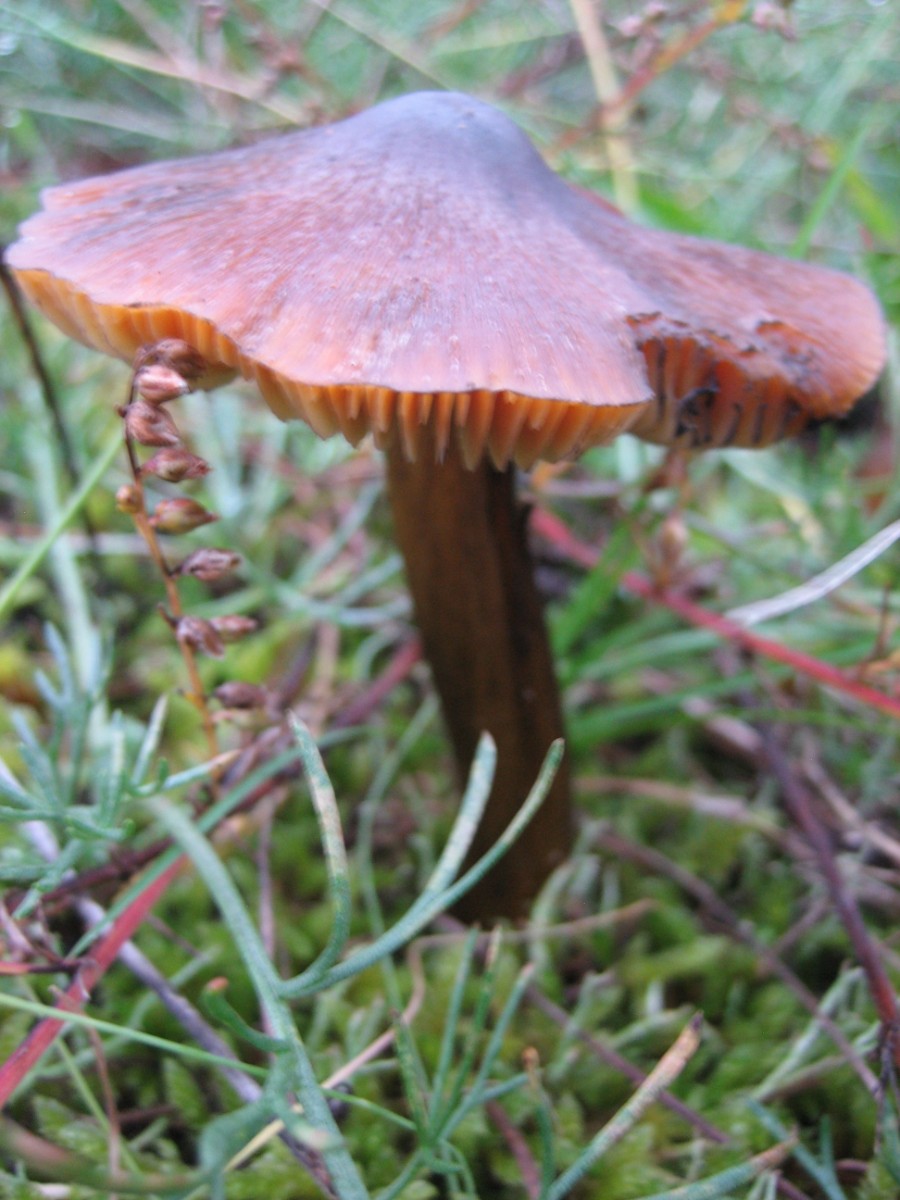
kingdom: Fungi
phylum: Basidiomycota
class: Agaricomycetes
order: Agaricales
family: Hygrophoraceae
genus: Hygrocybe
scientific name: Hygrocybe conica
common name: kegle-vokshat
